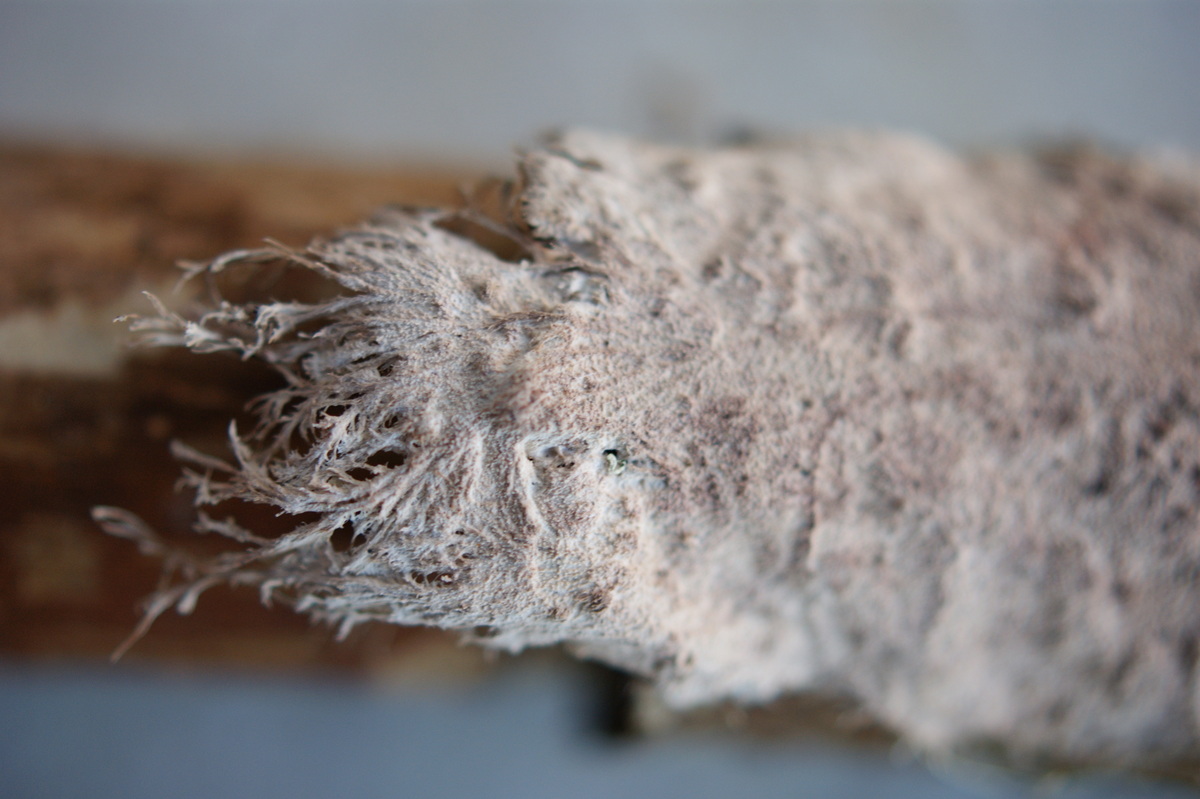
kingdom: Fungi
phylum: Basidiomycota
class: Agaricomycetes
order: Polyporales
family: Steccherinaceae
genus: Steccherinum
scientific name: Steccherinum fimbriatum
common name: trådet skønpig
